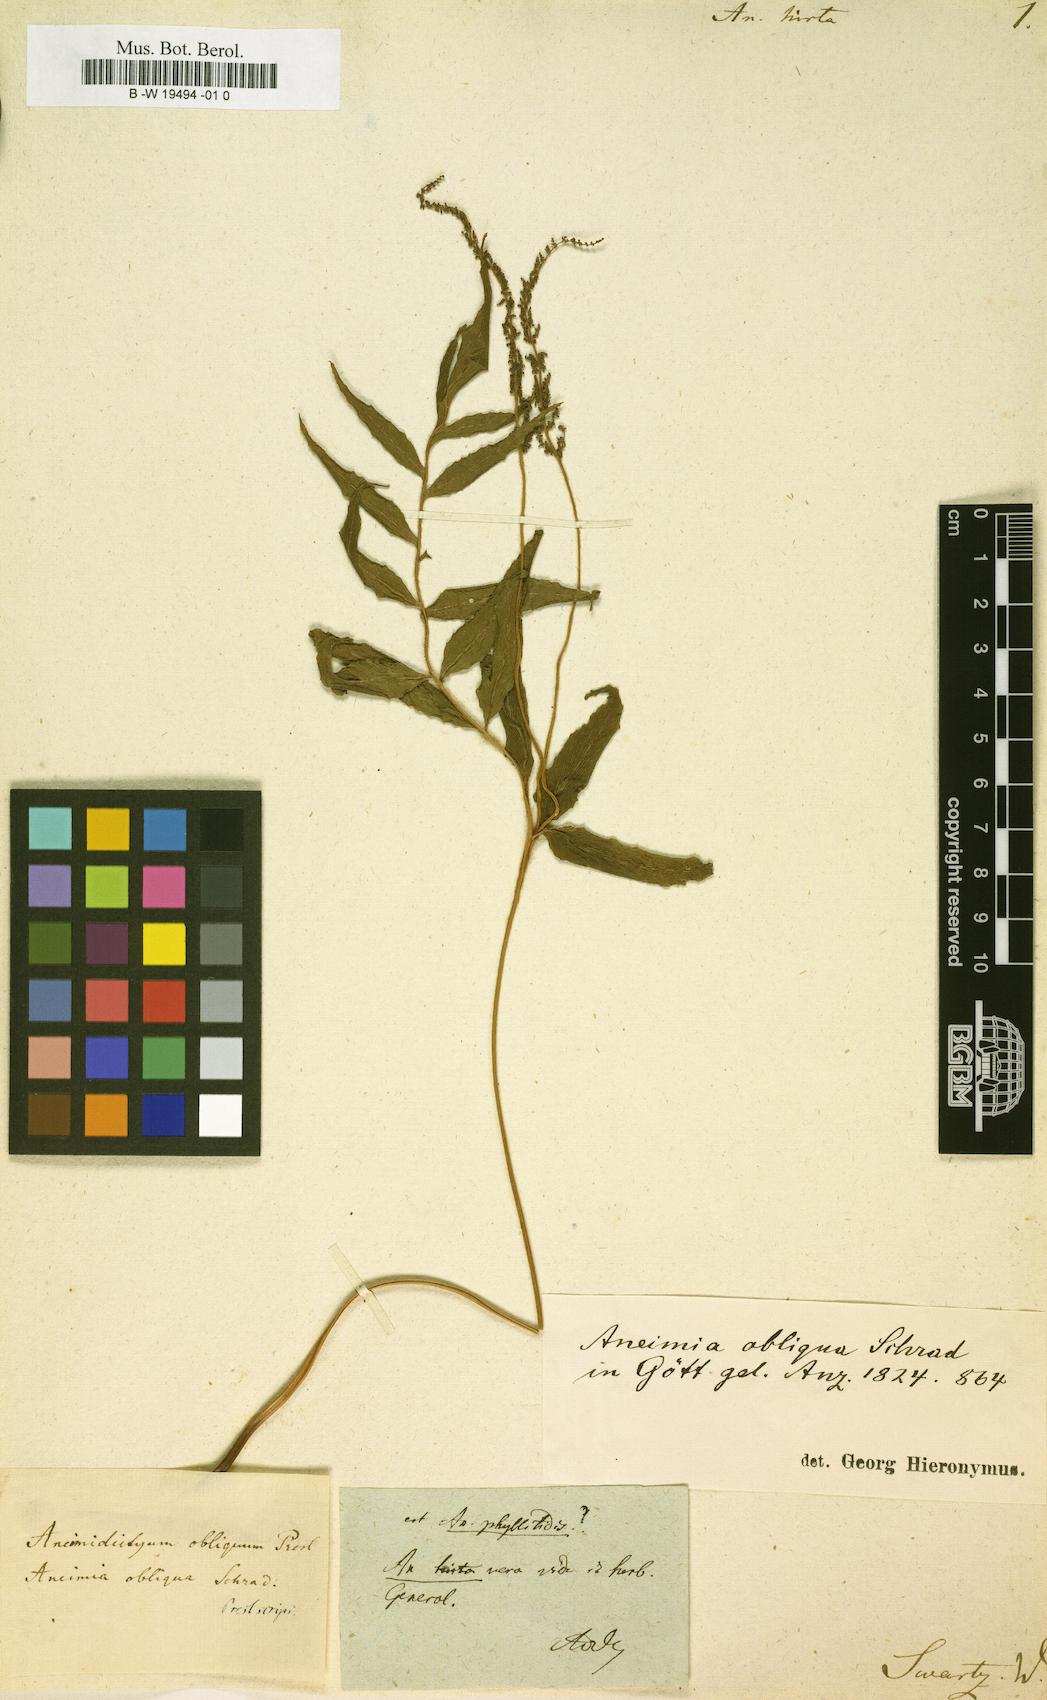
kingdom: Plantae
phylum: Tracheophyta
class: Polypodiopsida
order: Schizaeales
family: Anemiaceae
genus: Anemia
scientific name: Anemia hirta
